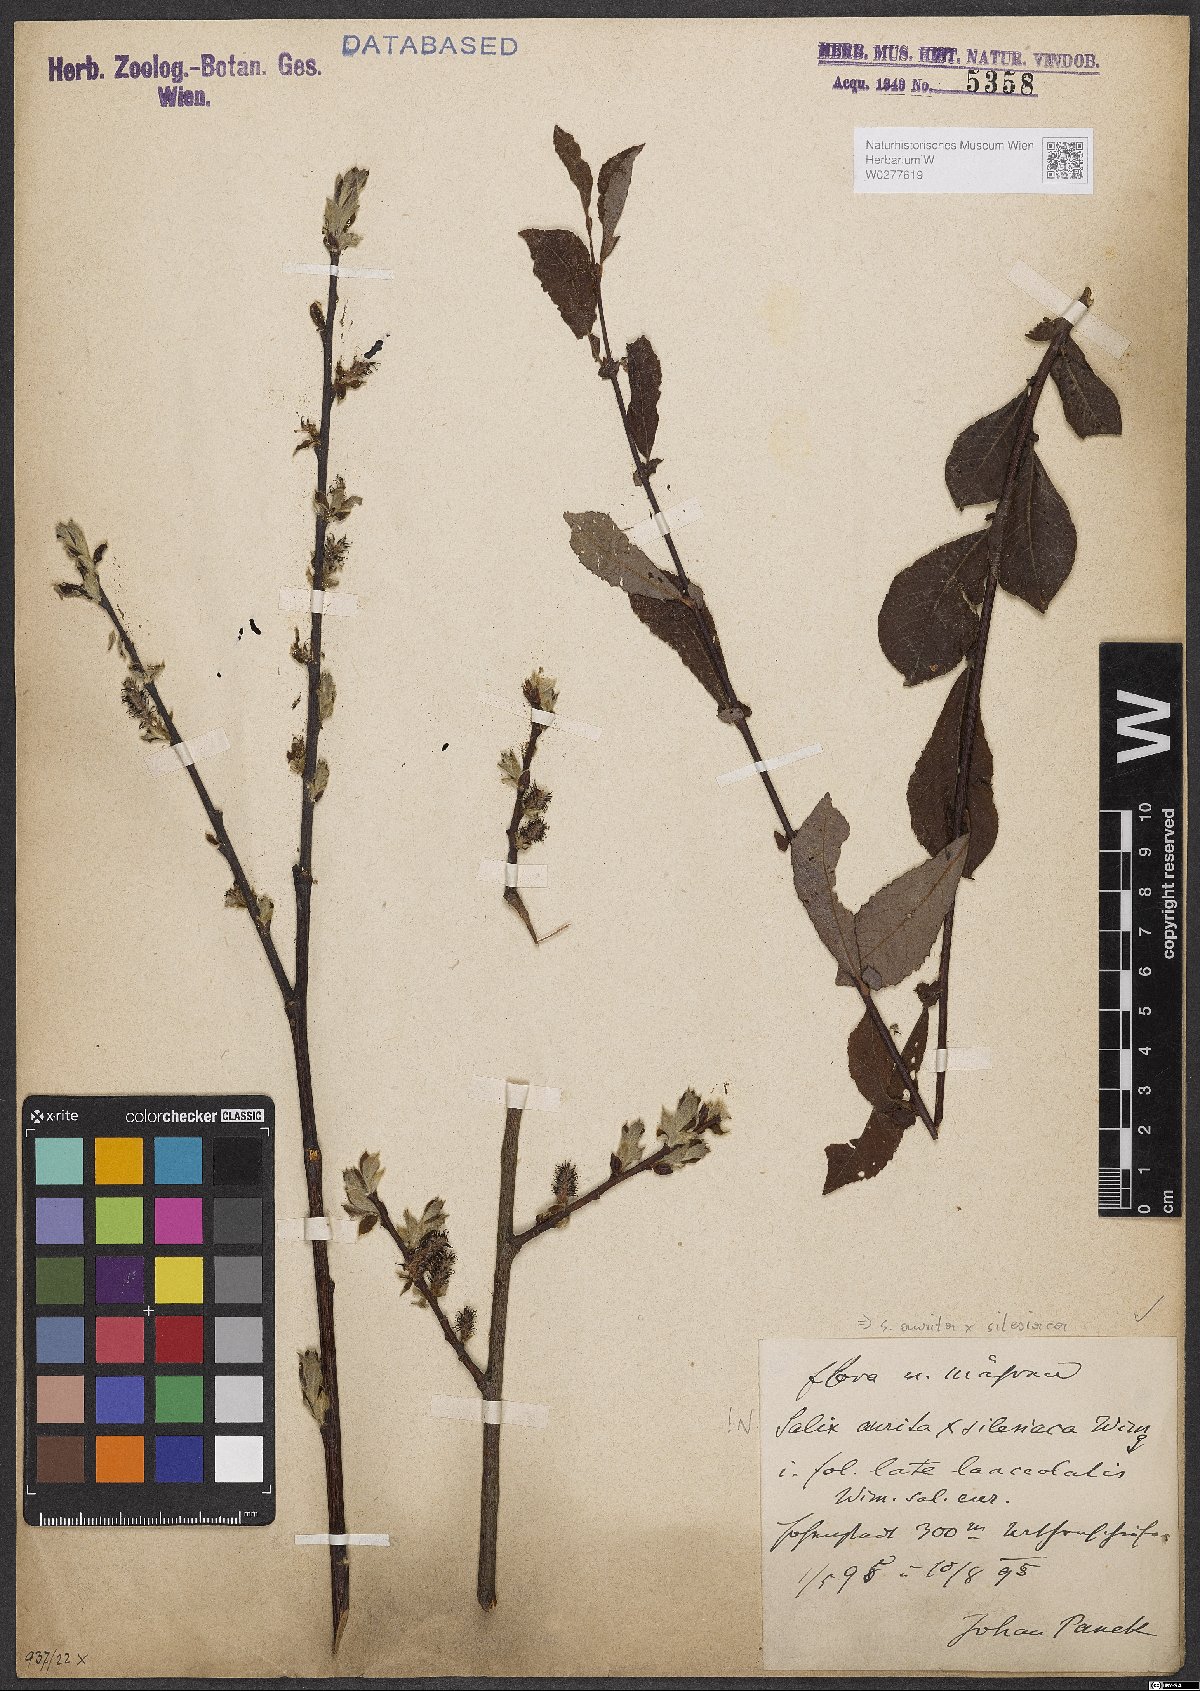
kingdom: Plantae
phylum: Tracheophyta
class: Magnoliopsida
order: Malpighiales
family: Salicaceae
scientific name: Salicaceae
